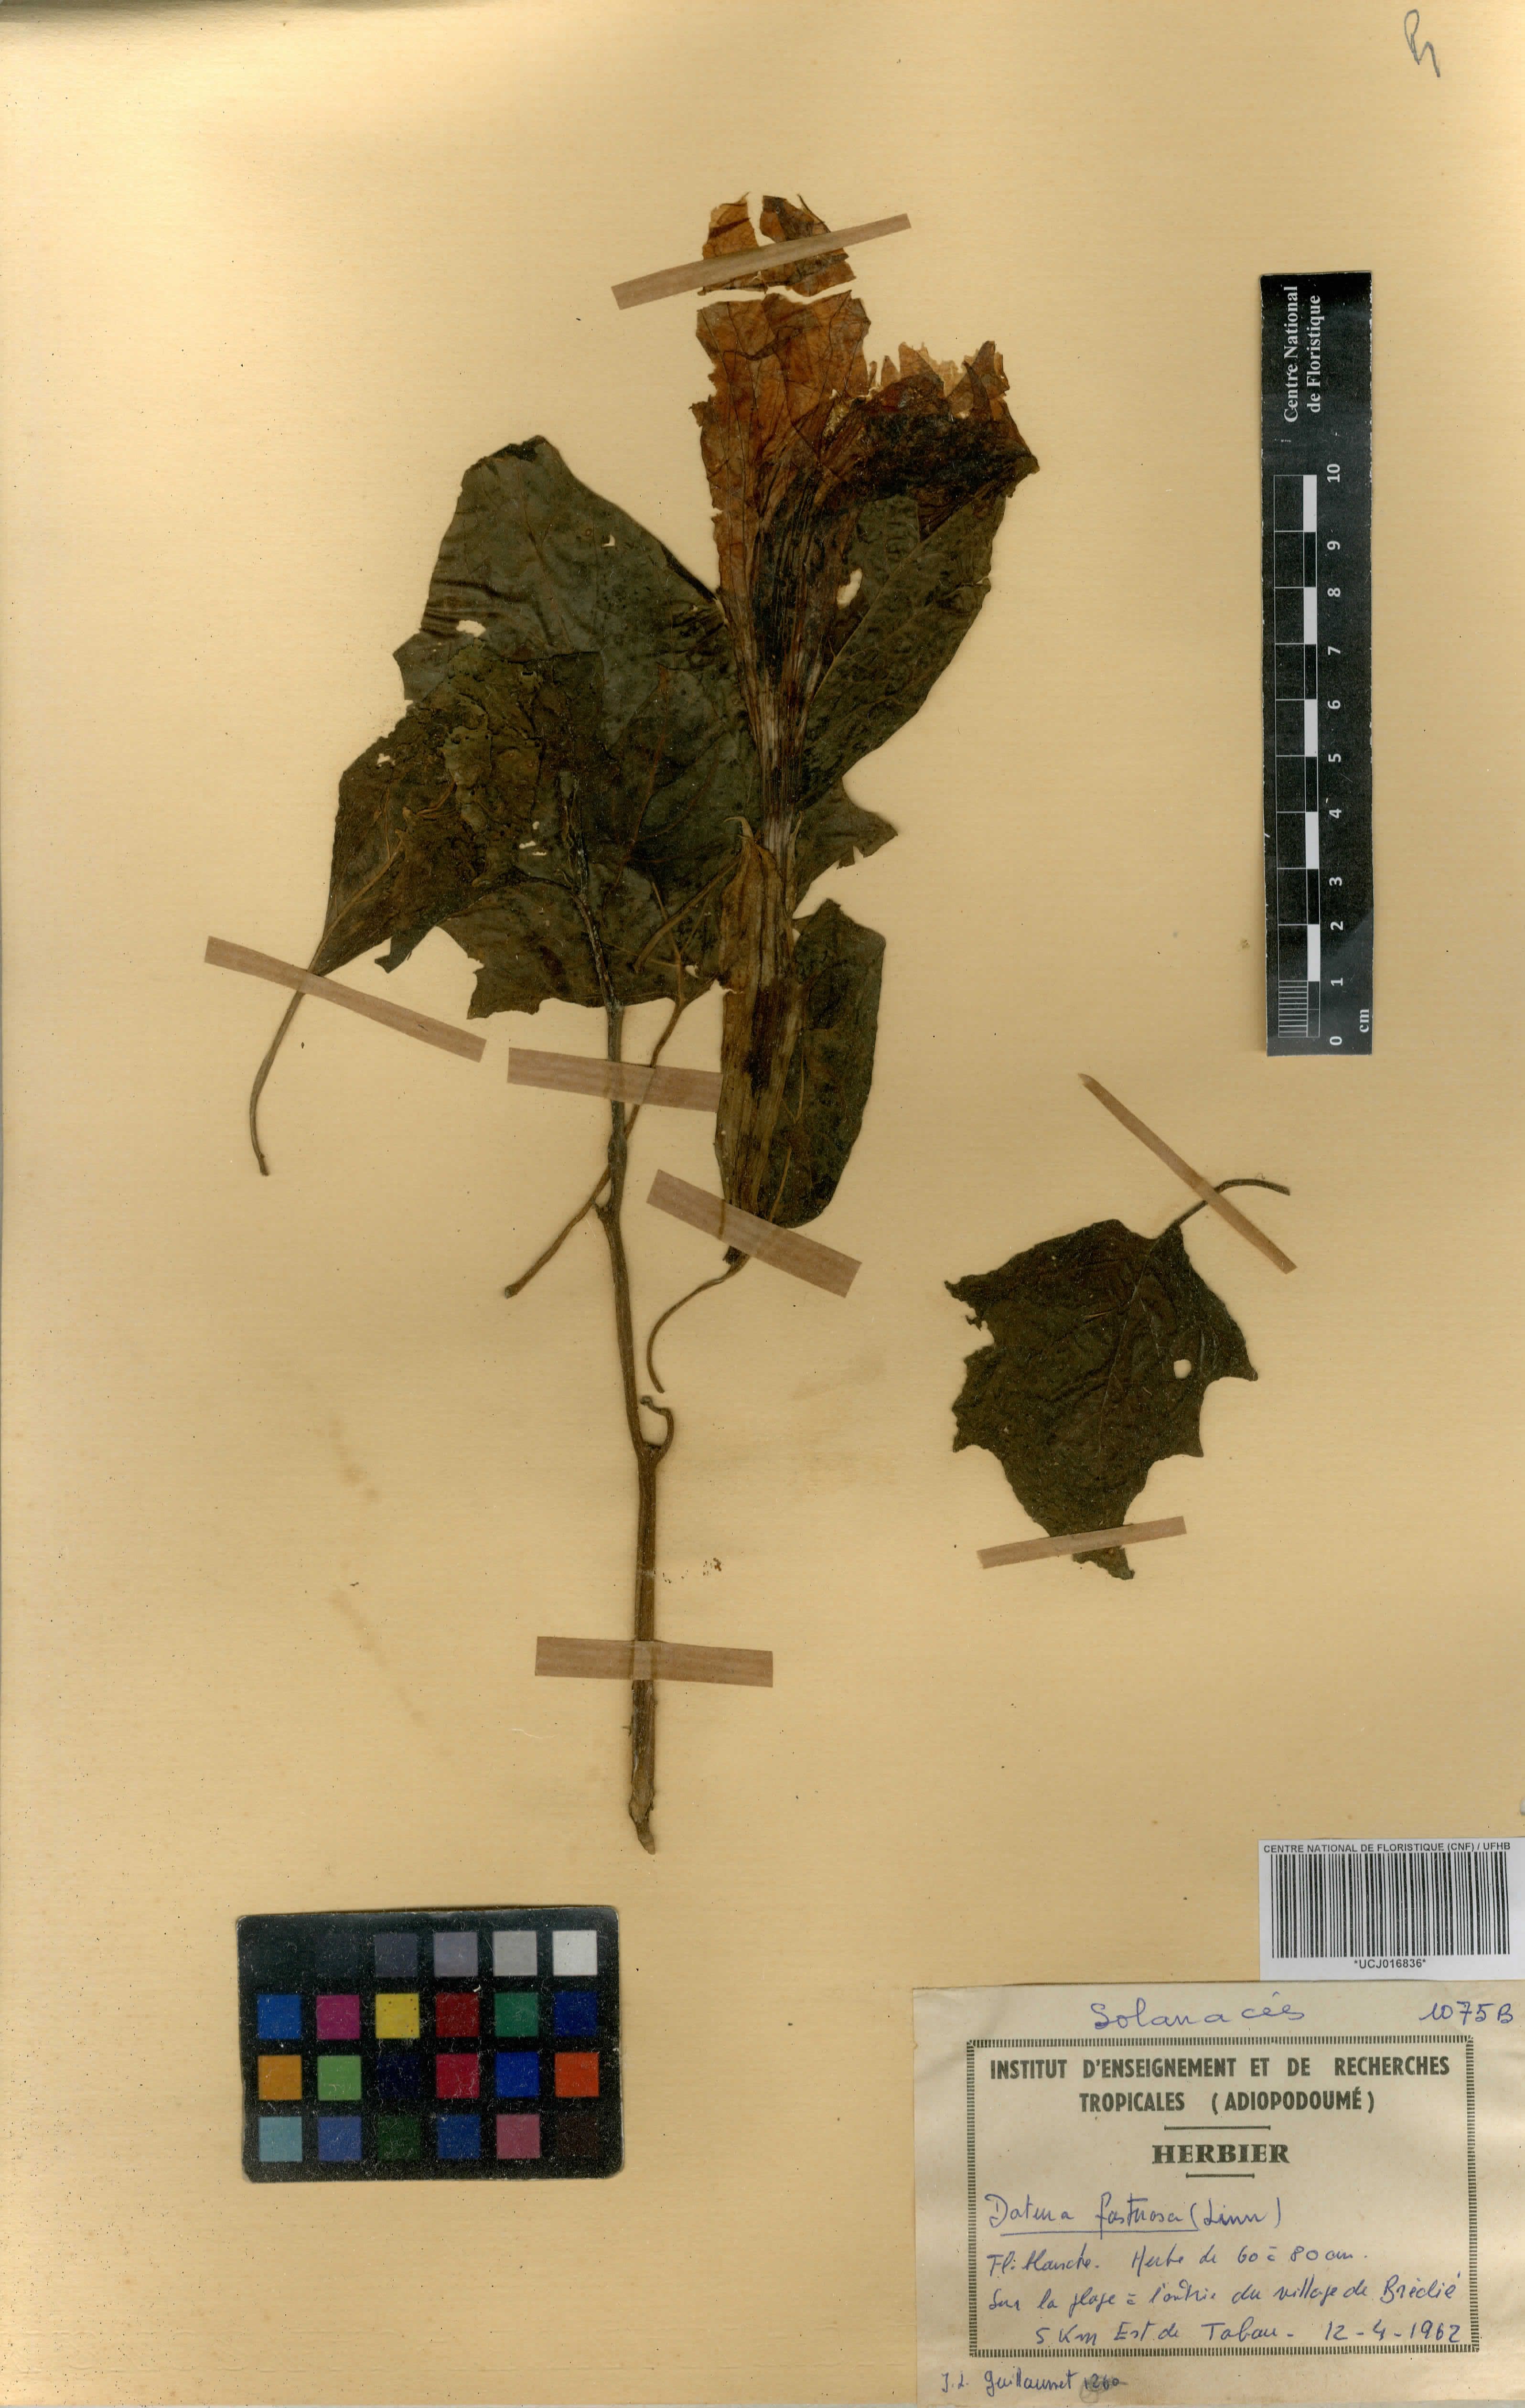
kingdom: Plantae
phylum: Tracheophyta
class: Magnoliopsida
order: Solanales
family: Solanaceae
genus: Datura
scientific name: Datura metel
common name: Jimsonweed
